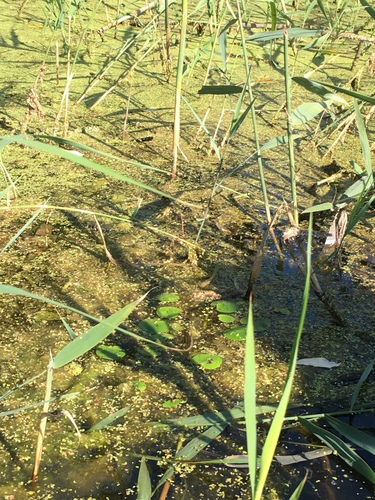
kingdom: Plantae
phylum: Tracheophyta
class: Liliopsida
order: Alismatales
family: Hydrocharitaceae
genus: Hydrocharis
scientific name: Hydrocharis morsus-ranae
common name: European frog-bit
